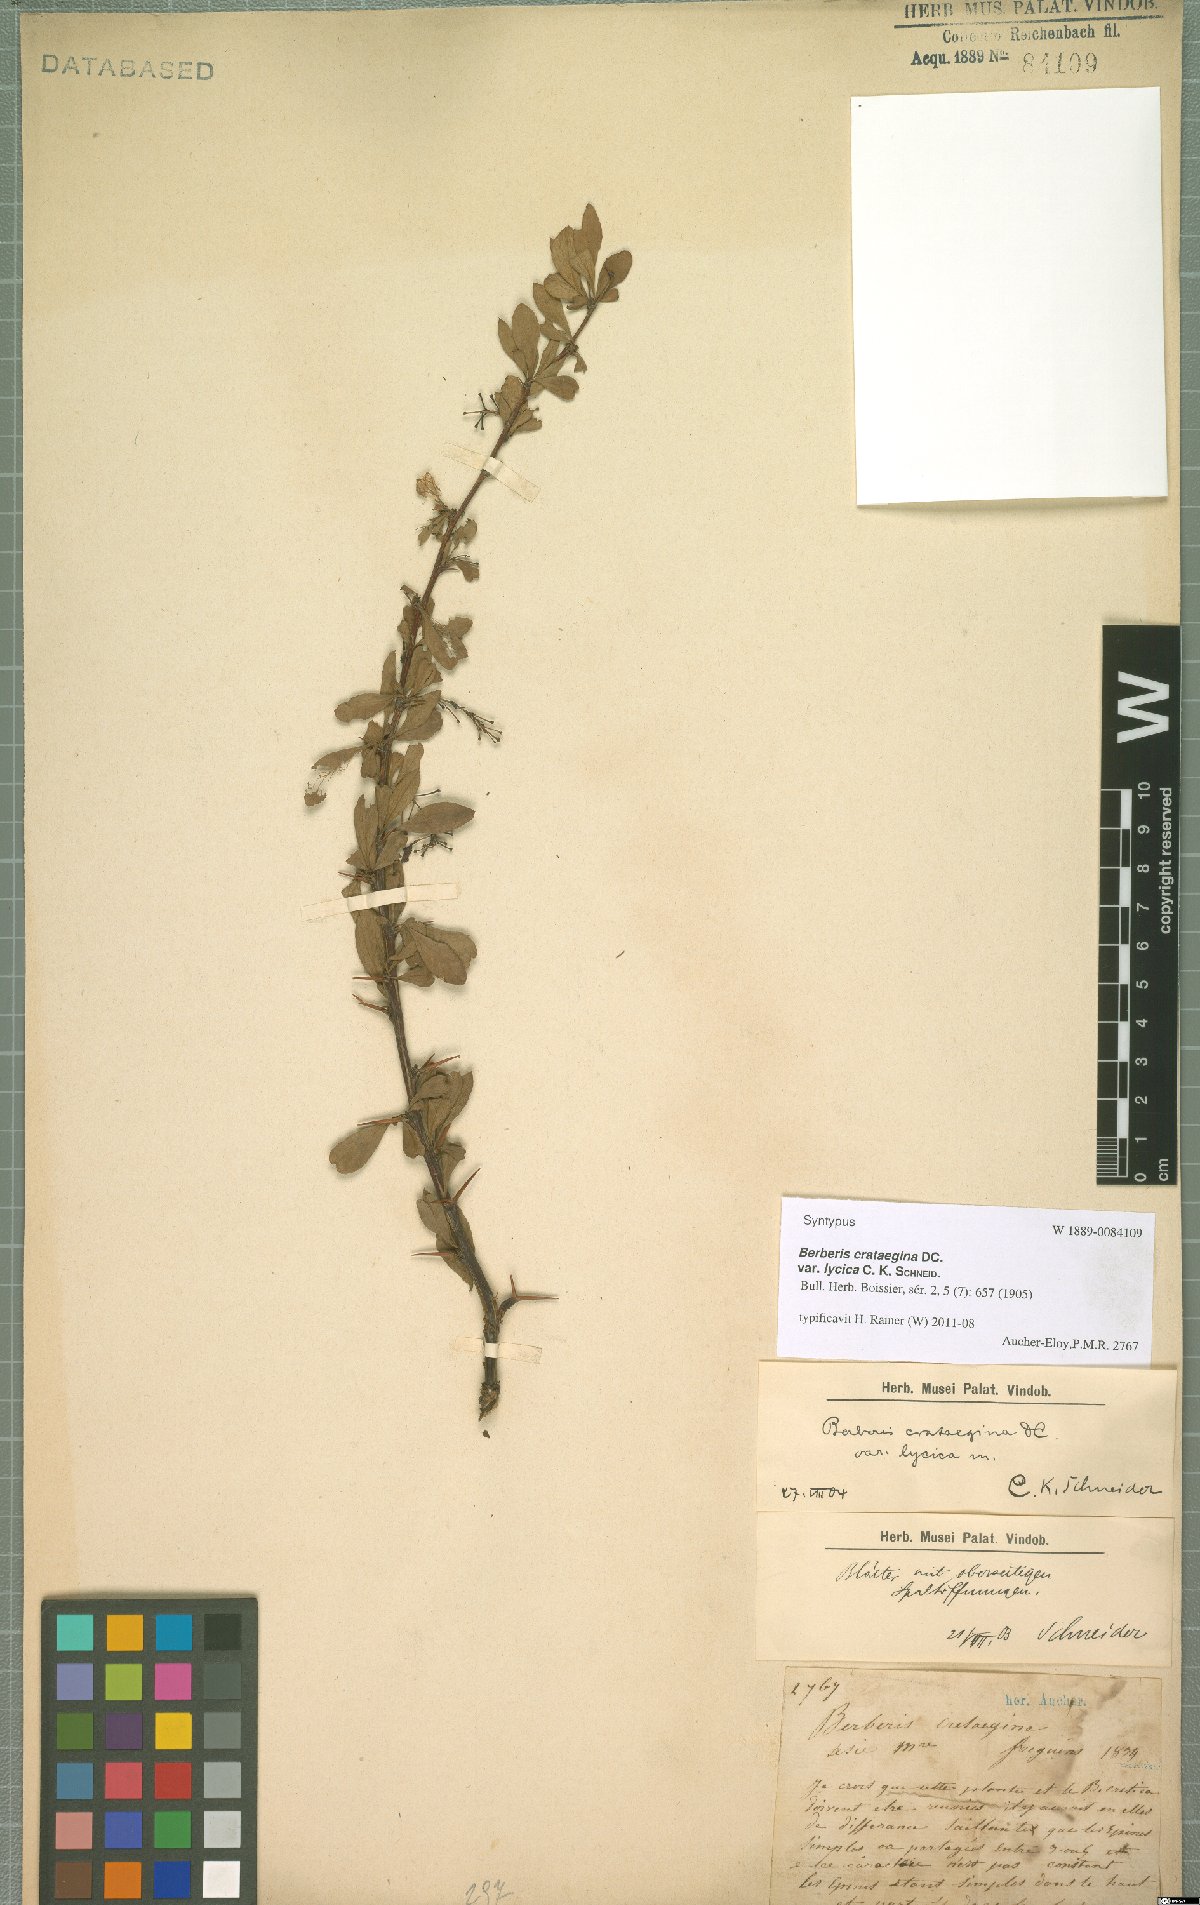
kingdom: Plantae
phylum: Tracheophyta
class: Magnoliopsida
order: Ranunculales
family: Berberidaceae
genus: Berberis
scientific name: Berberis crataegina
